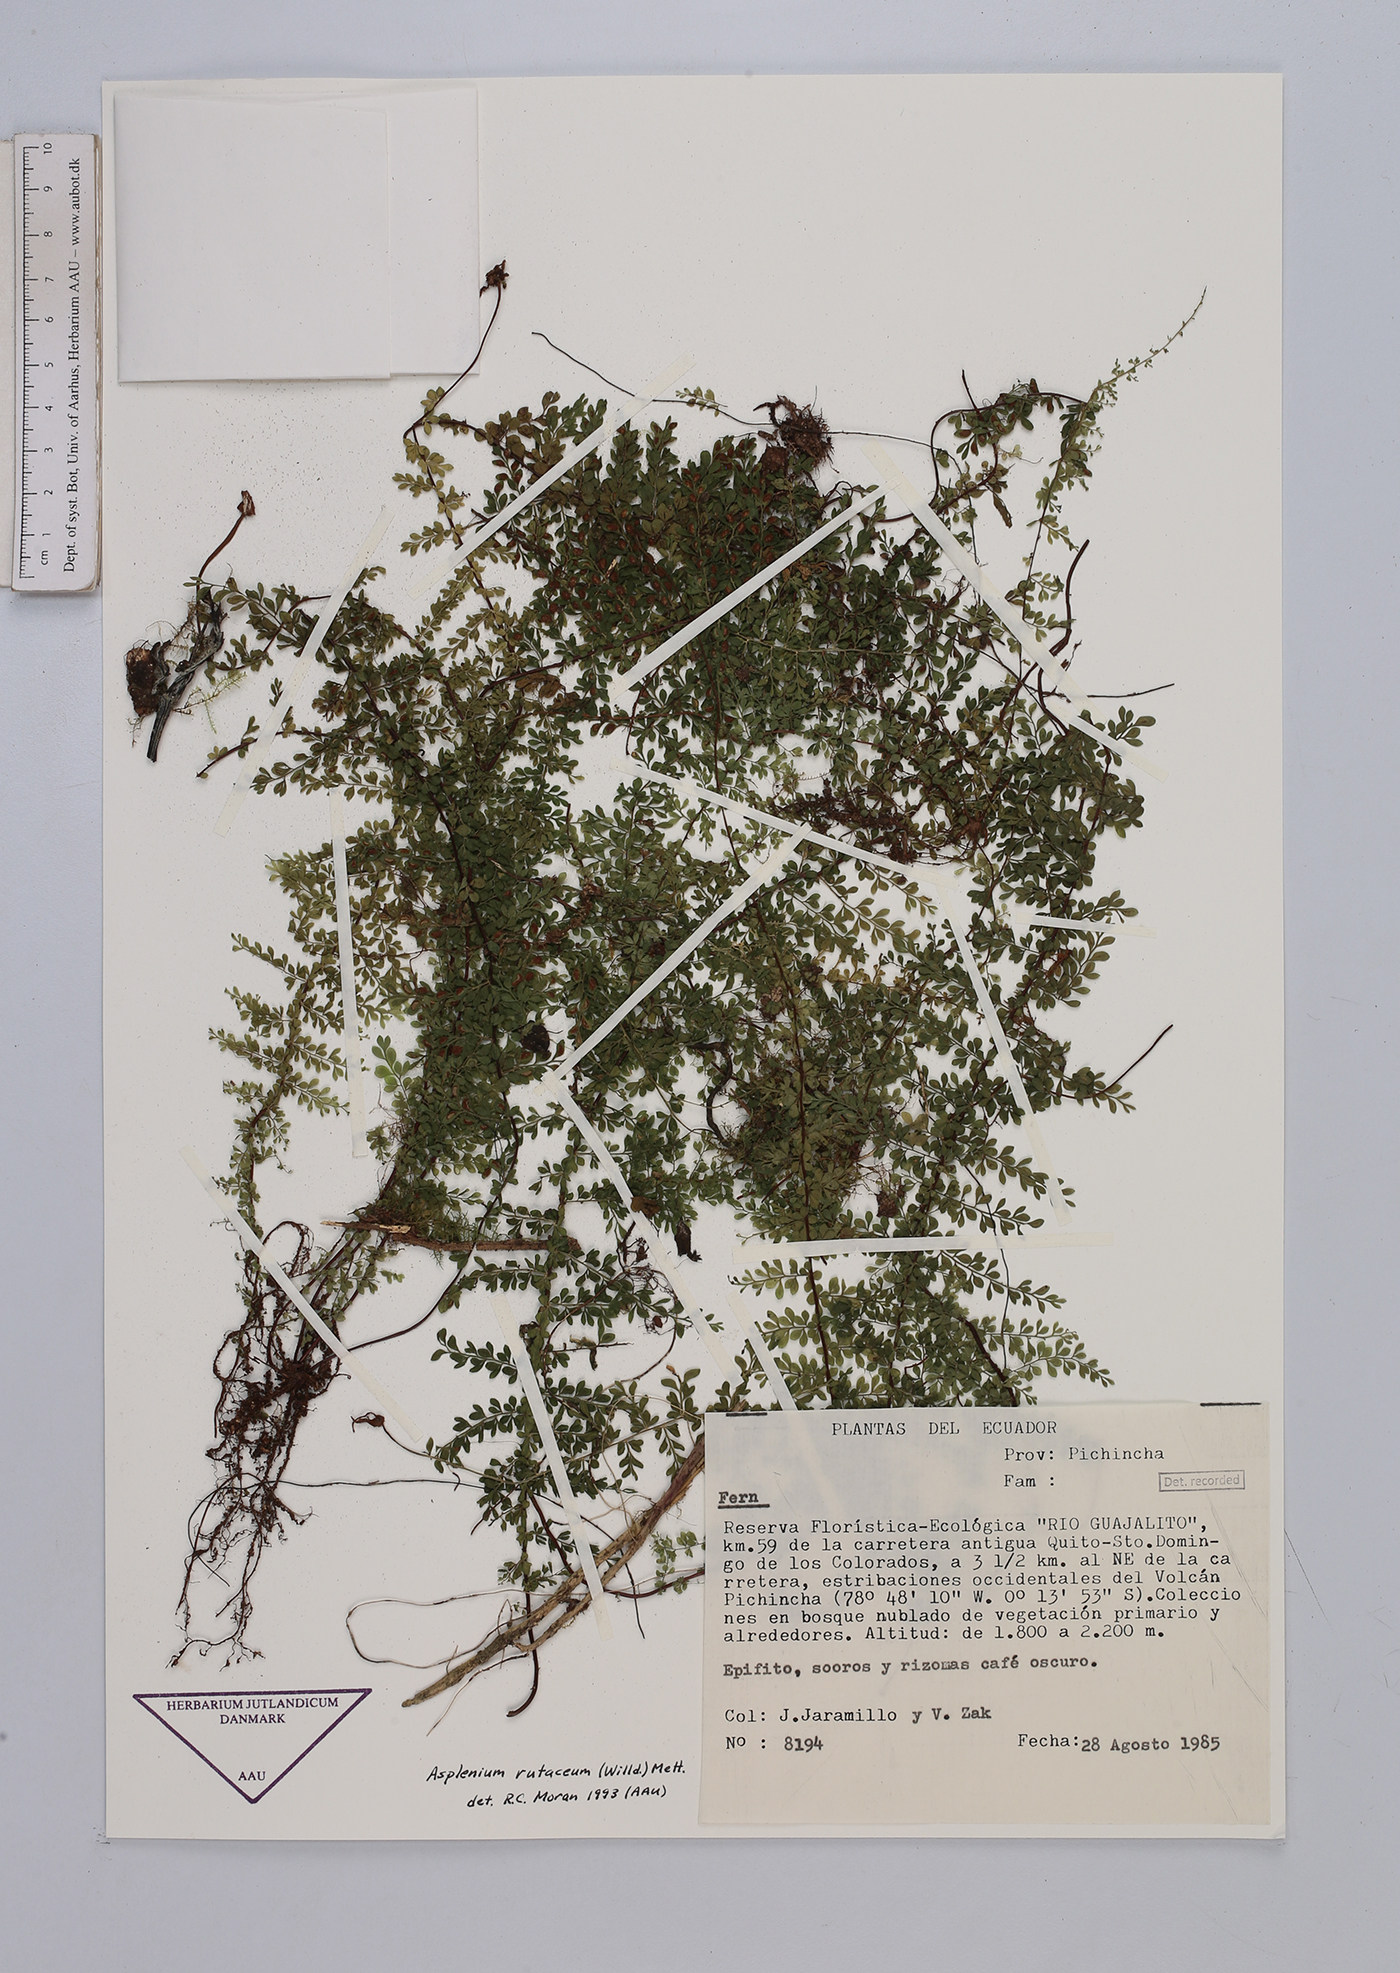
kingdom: Plantae
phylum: Tracheophyta
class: Polypodiopsida
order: Polypodiales
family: Aspleniaceae
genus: Asplenium
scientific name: Asplenium rutaceum
